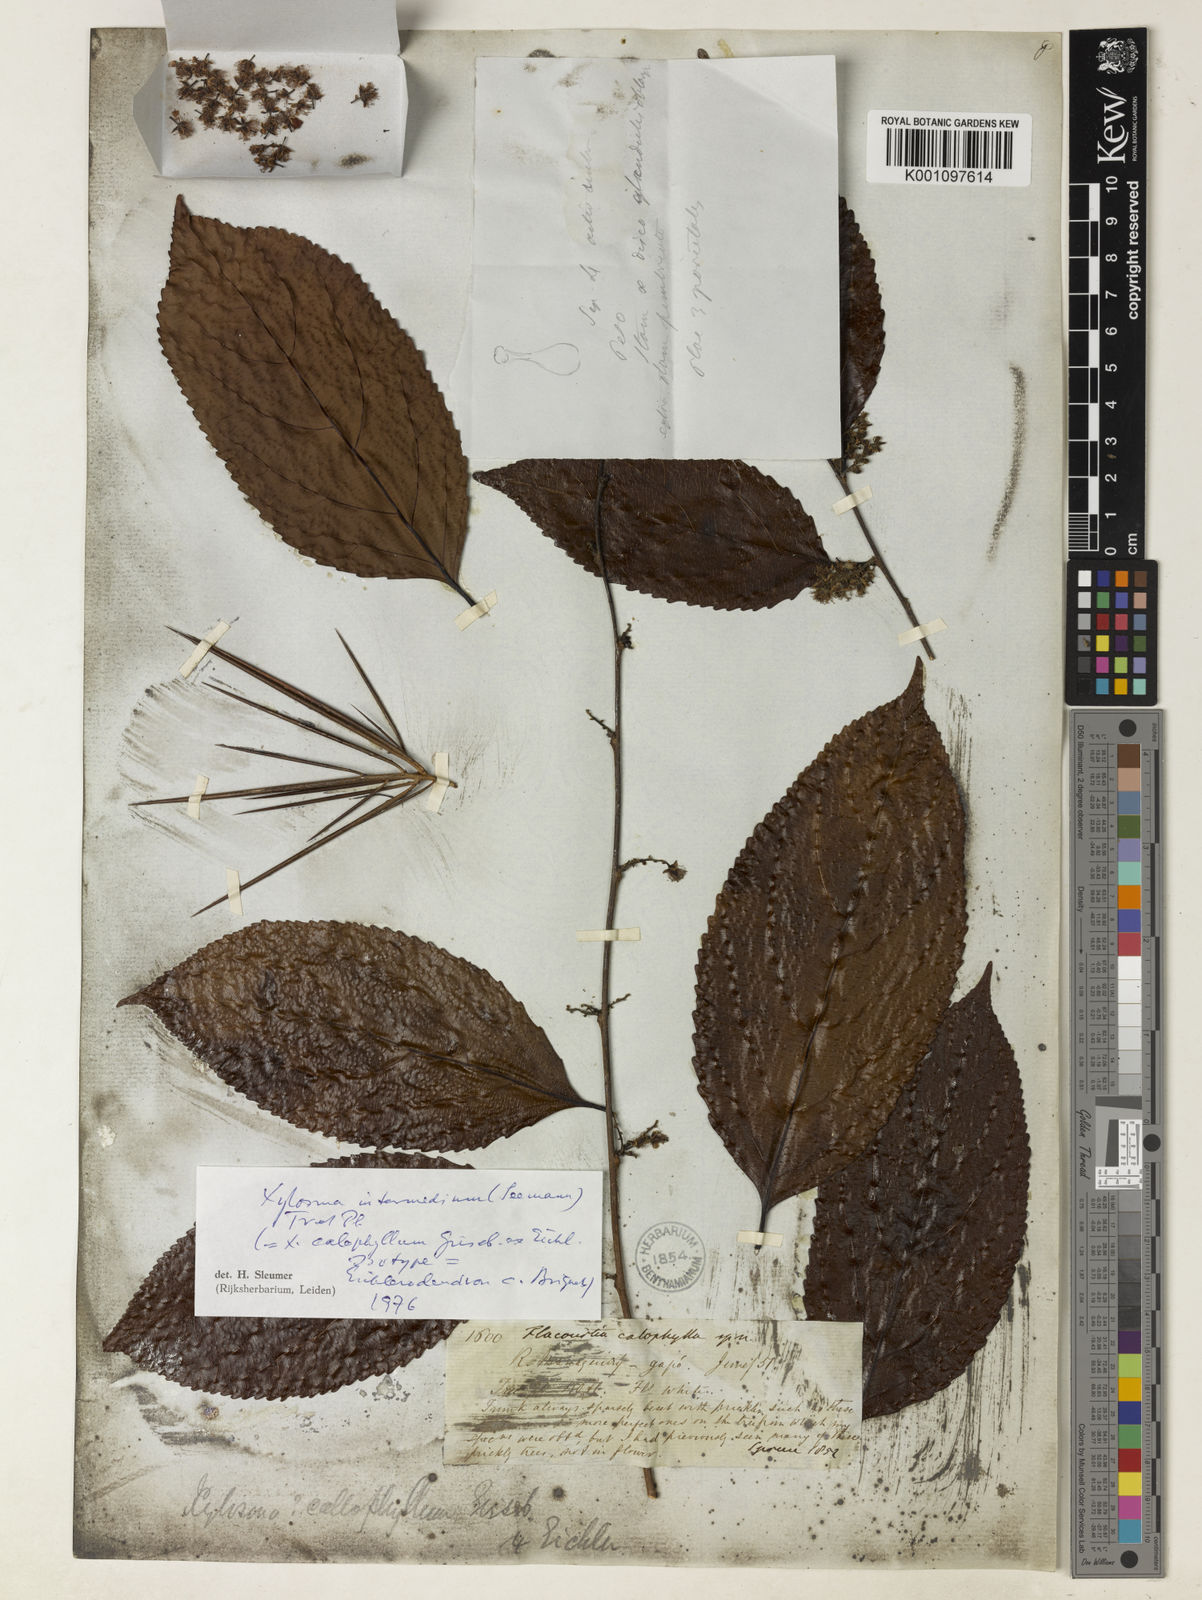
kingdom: Plantae
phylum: Tracheophyta
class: Magnoliopsida
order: Malpighiales
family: Salicaceae
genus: Xylosma
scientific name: Xylosma
